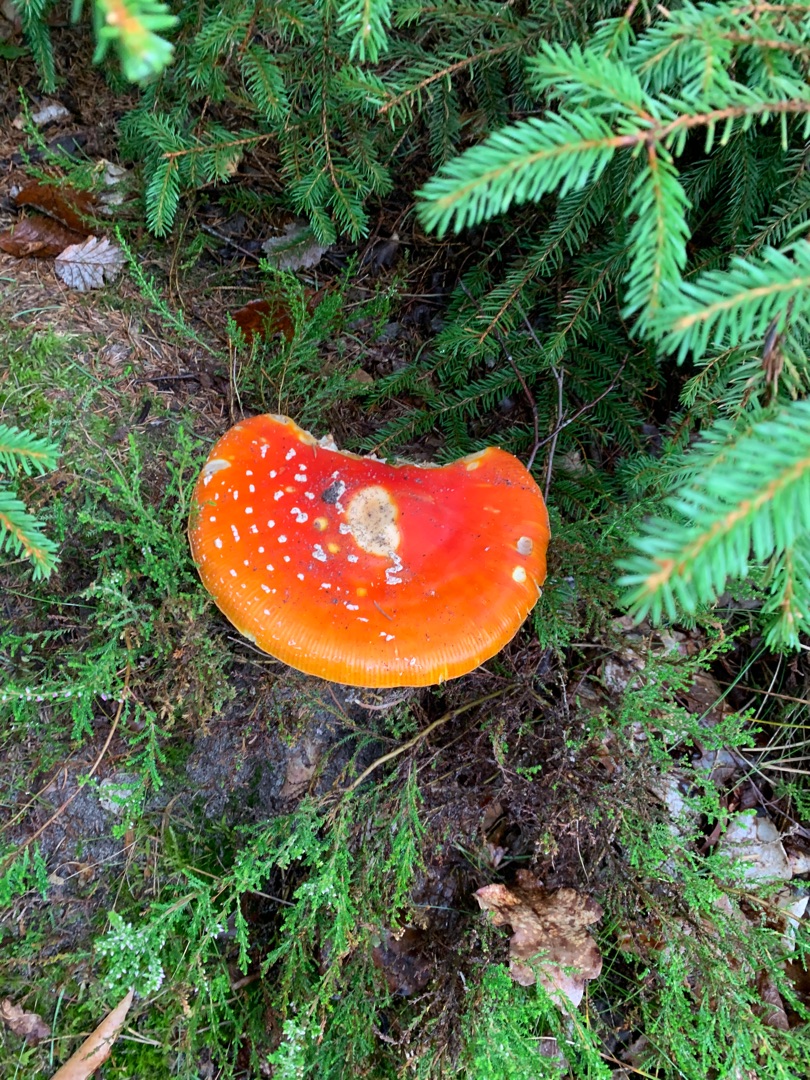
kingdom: Fungi
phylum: Basidiomycota
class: Agaricomycetes
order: Agaricales
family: Amanitaceae
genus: Amanita
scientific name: Amanita muscaria
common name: Rød fluesvamp
